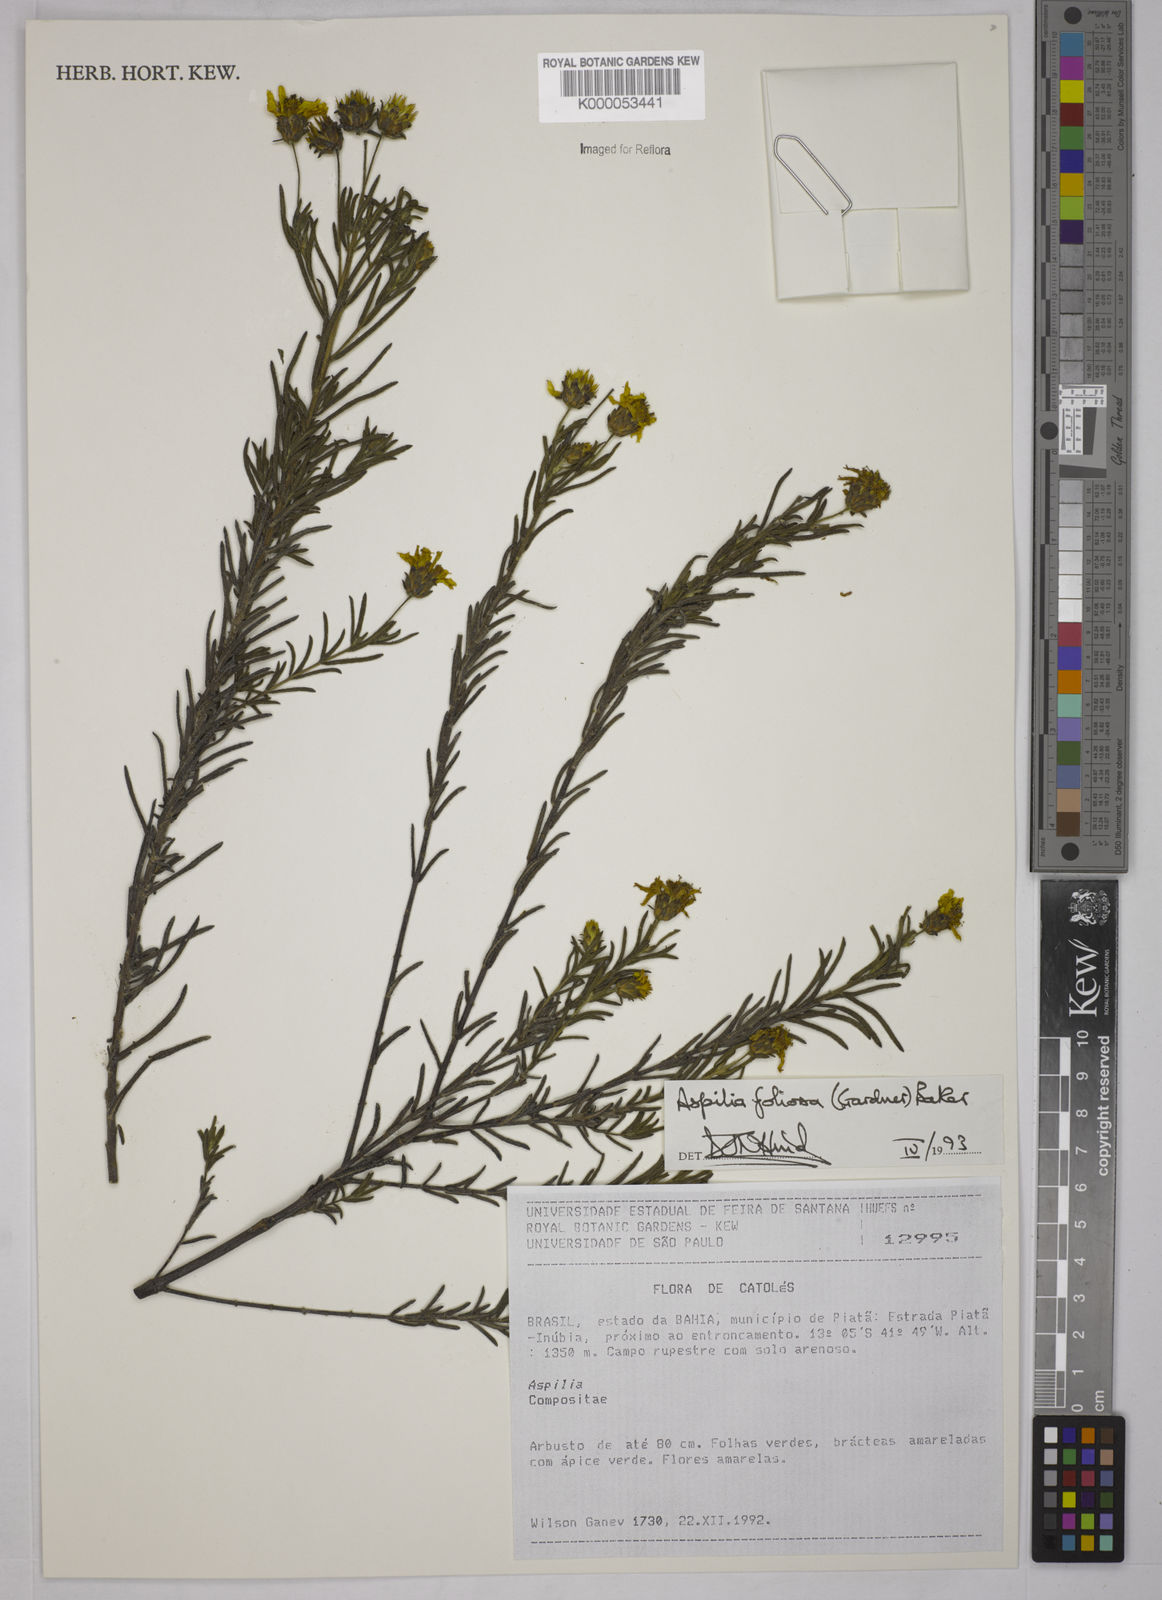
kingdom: Plantae
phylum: Tracheophyta
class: Magnoliopsida
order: Asterales
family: Asteraceae
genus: Aspilia
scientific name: Aspilia
